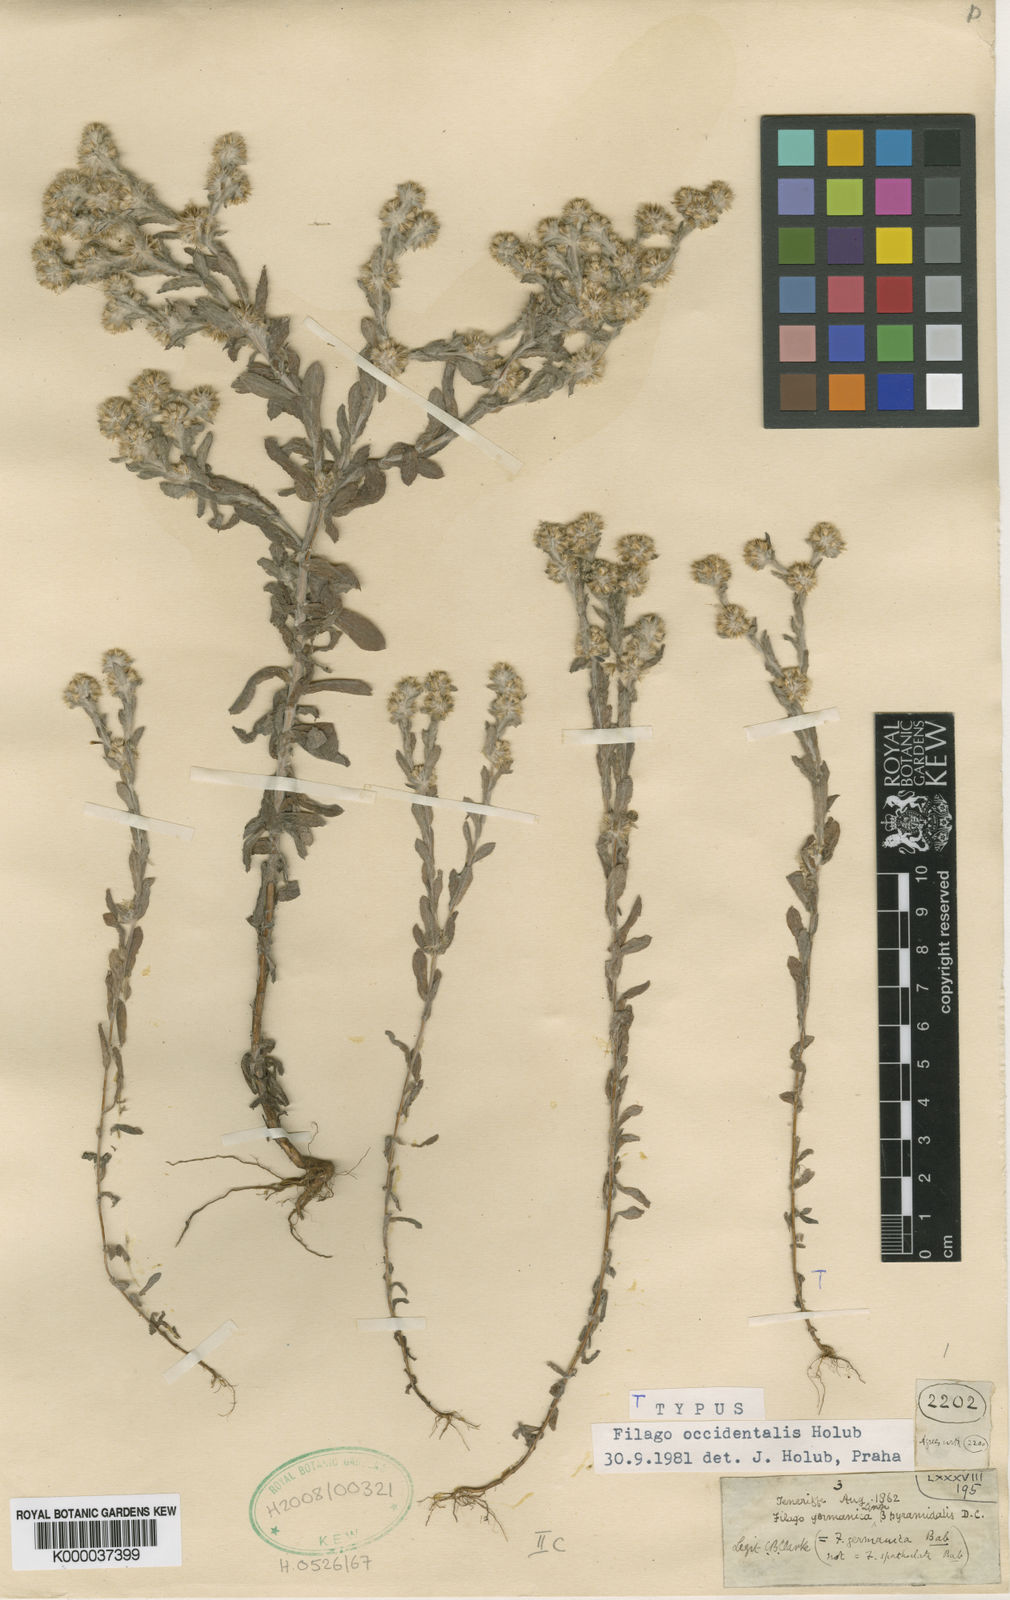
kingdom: Plantae
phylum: Tracheophyta
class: Magnoliopsida
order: Asterales
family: Asteraceae
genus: Filago
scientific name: Filago albicans
